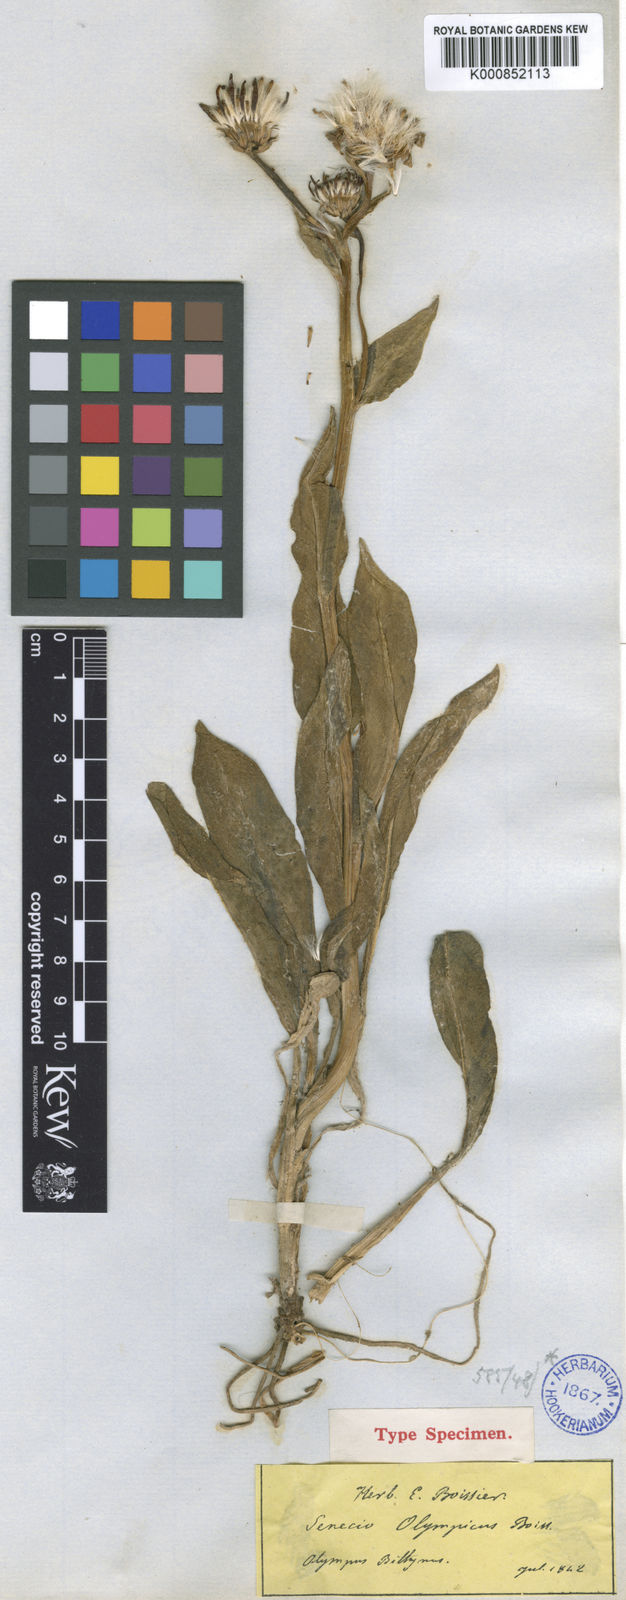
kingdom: Plantae
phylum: Tracheophyta
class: Magnoliopsida
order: Asterales
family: Asteraceae
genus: Senecio
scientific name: Senecio olympicus
